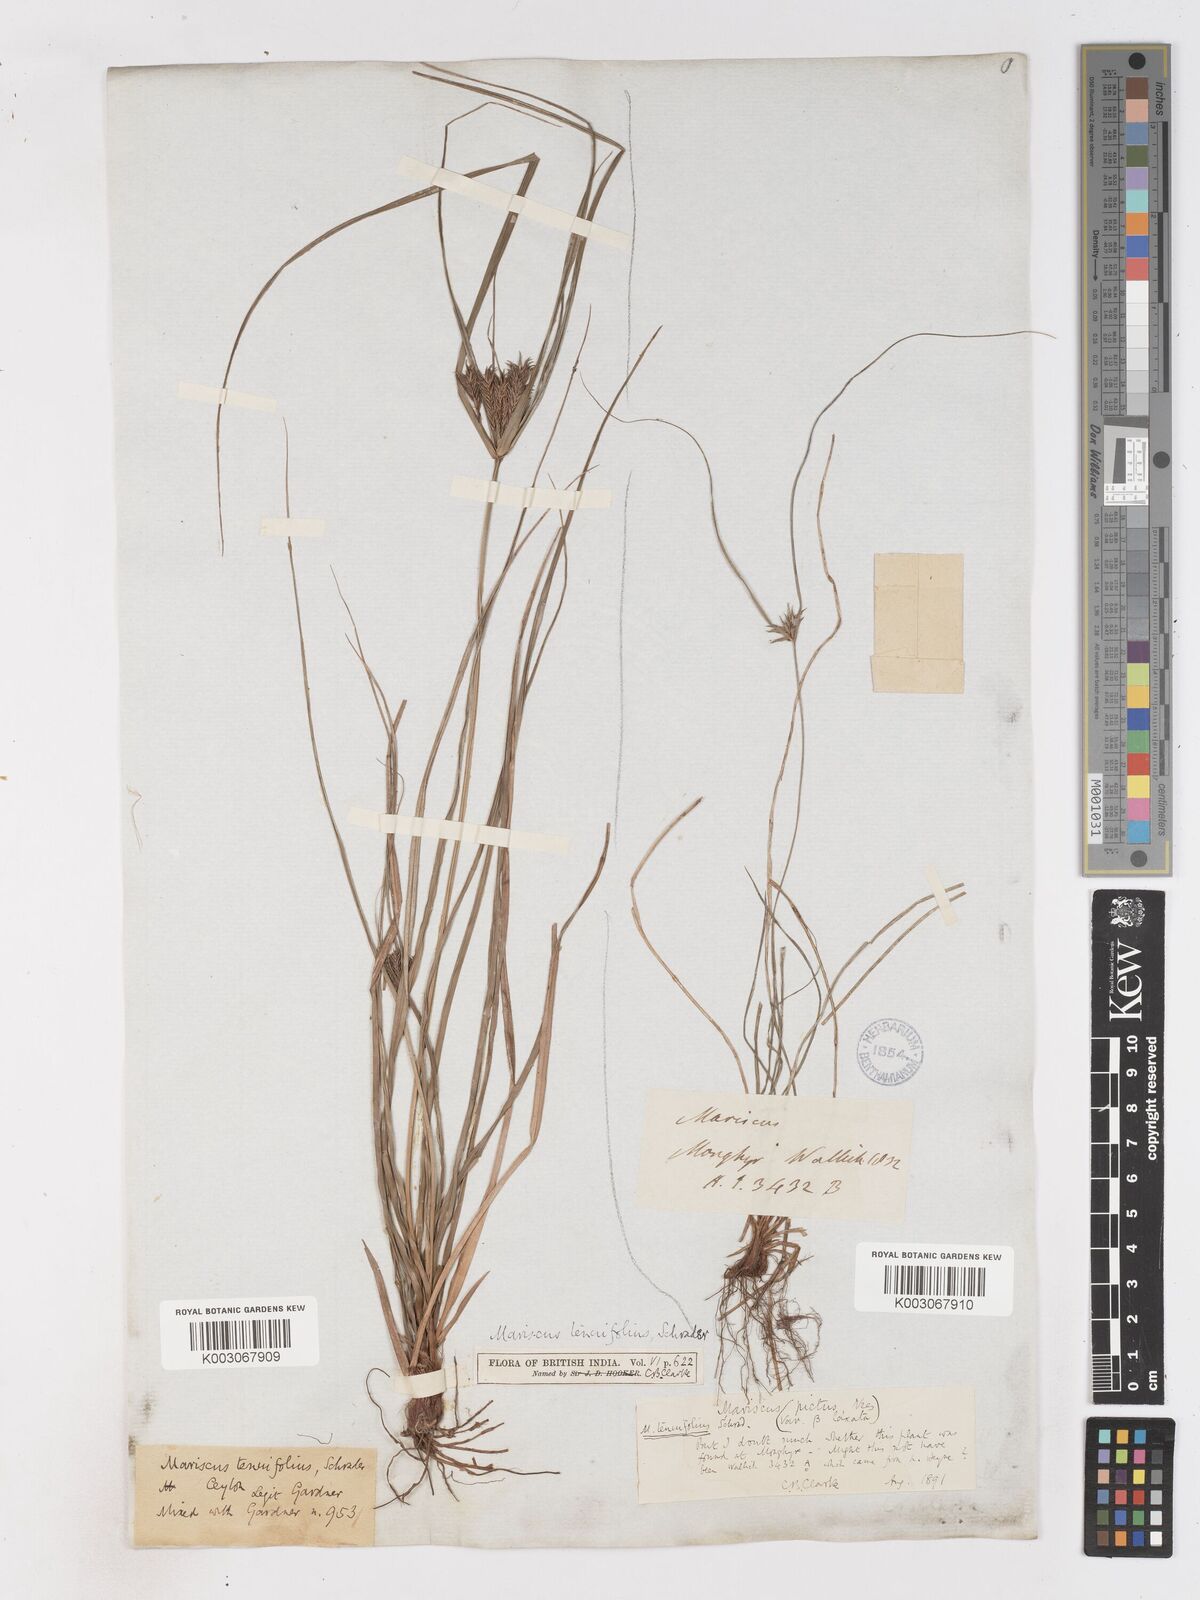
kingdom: Plantae
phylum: Tracheophyta
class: Liliopsida
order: Poales
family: Cyperaceae
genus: Cyperus
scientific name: Cyperus cyperinus
